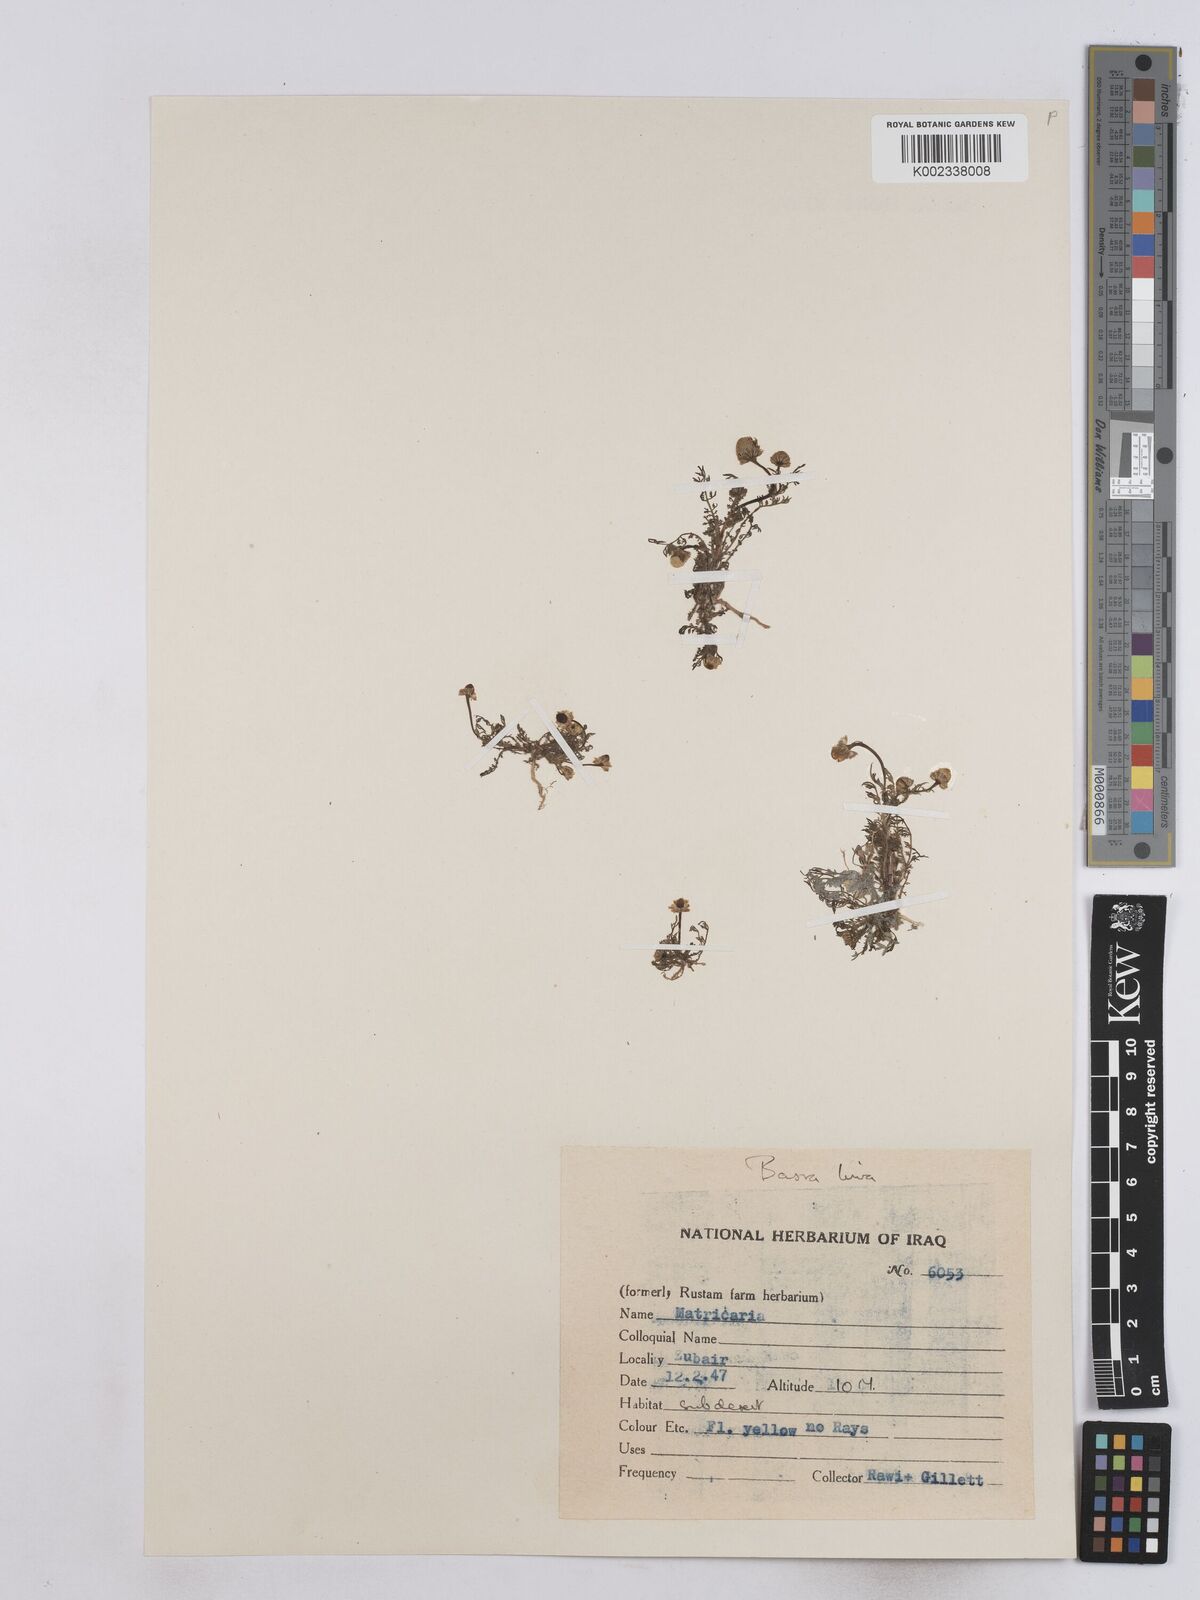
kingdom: Plantae
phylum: Tracheophyta
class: Magnoliopsida
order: Asterales
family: Asteraceae
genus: Matricaria
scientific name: Matricaria aurea
